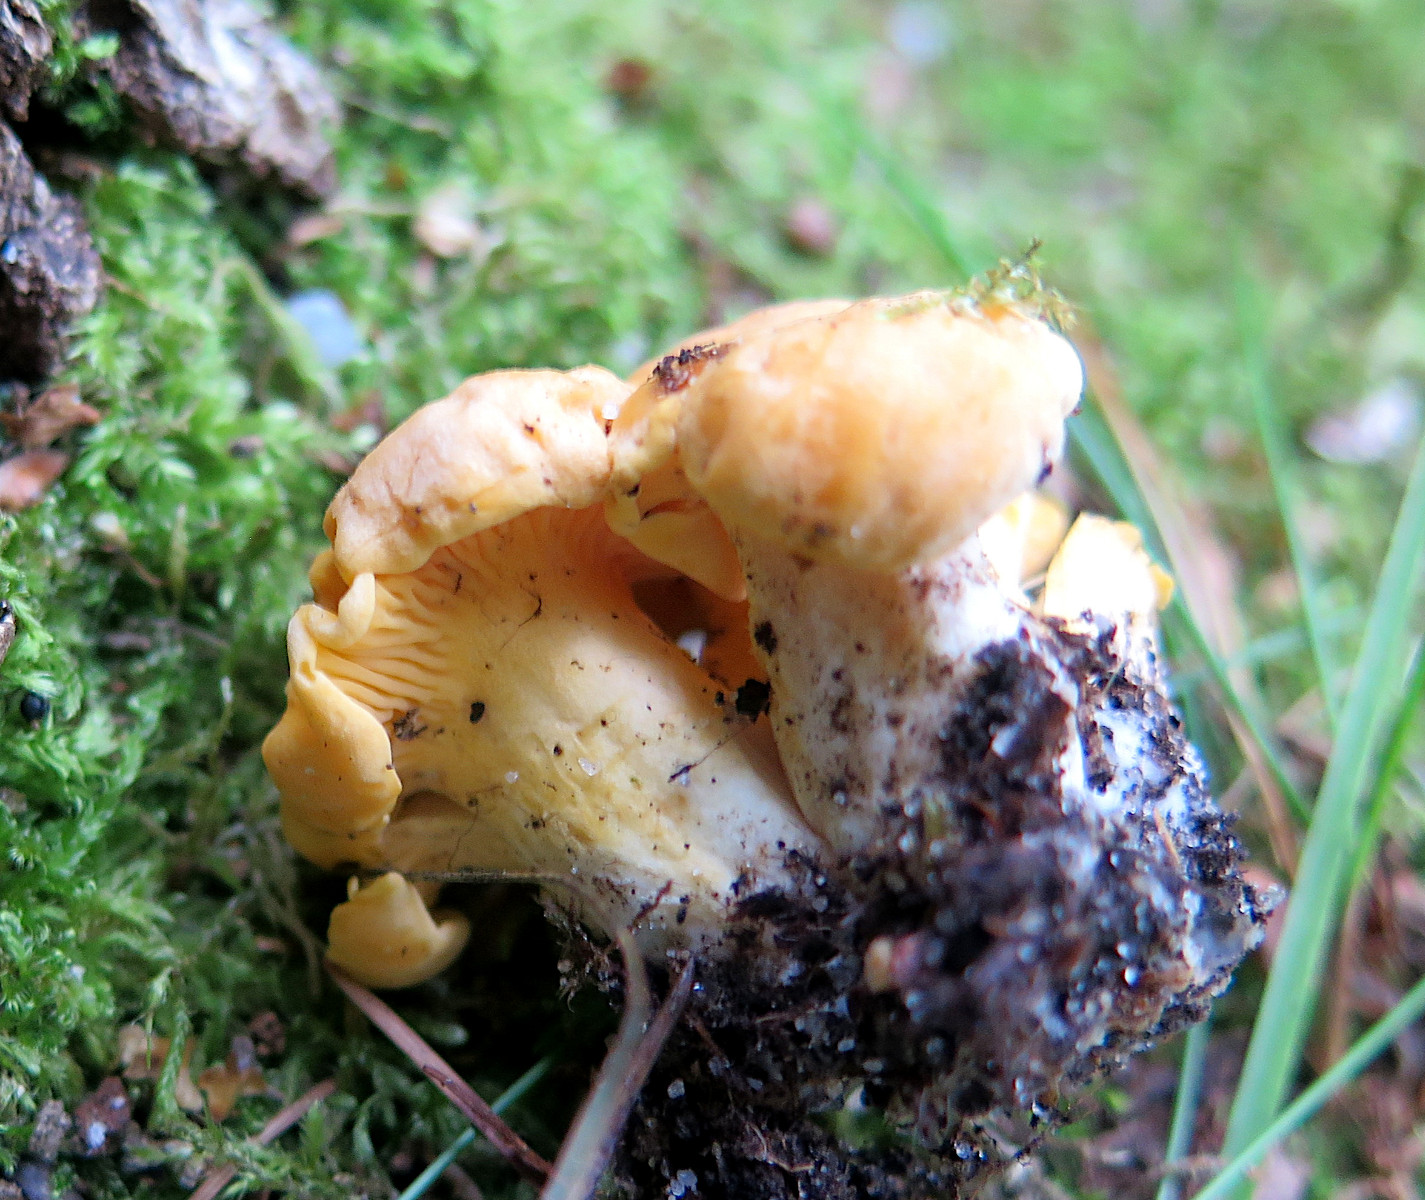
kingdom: Fungi
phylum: Basidiomycota
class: Agaricomycetes
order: Cantharellales
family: Hydnaceae
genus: Cantharellus
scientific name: Cantharellus cibarius
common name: almindelig kantarel
